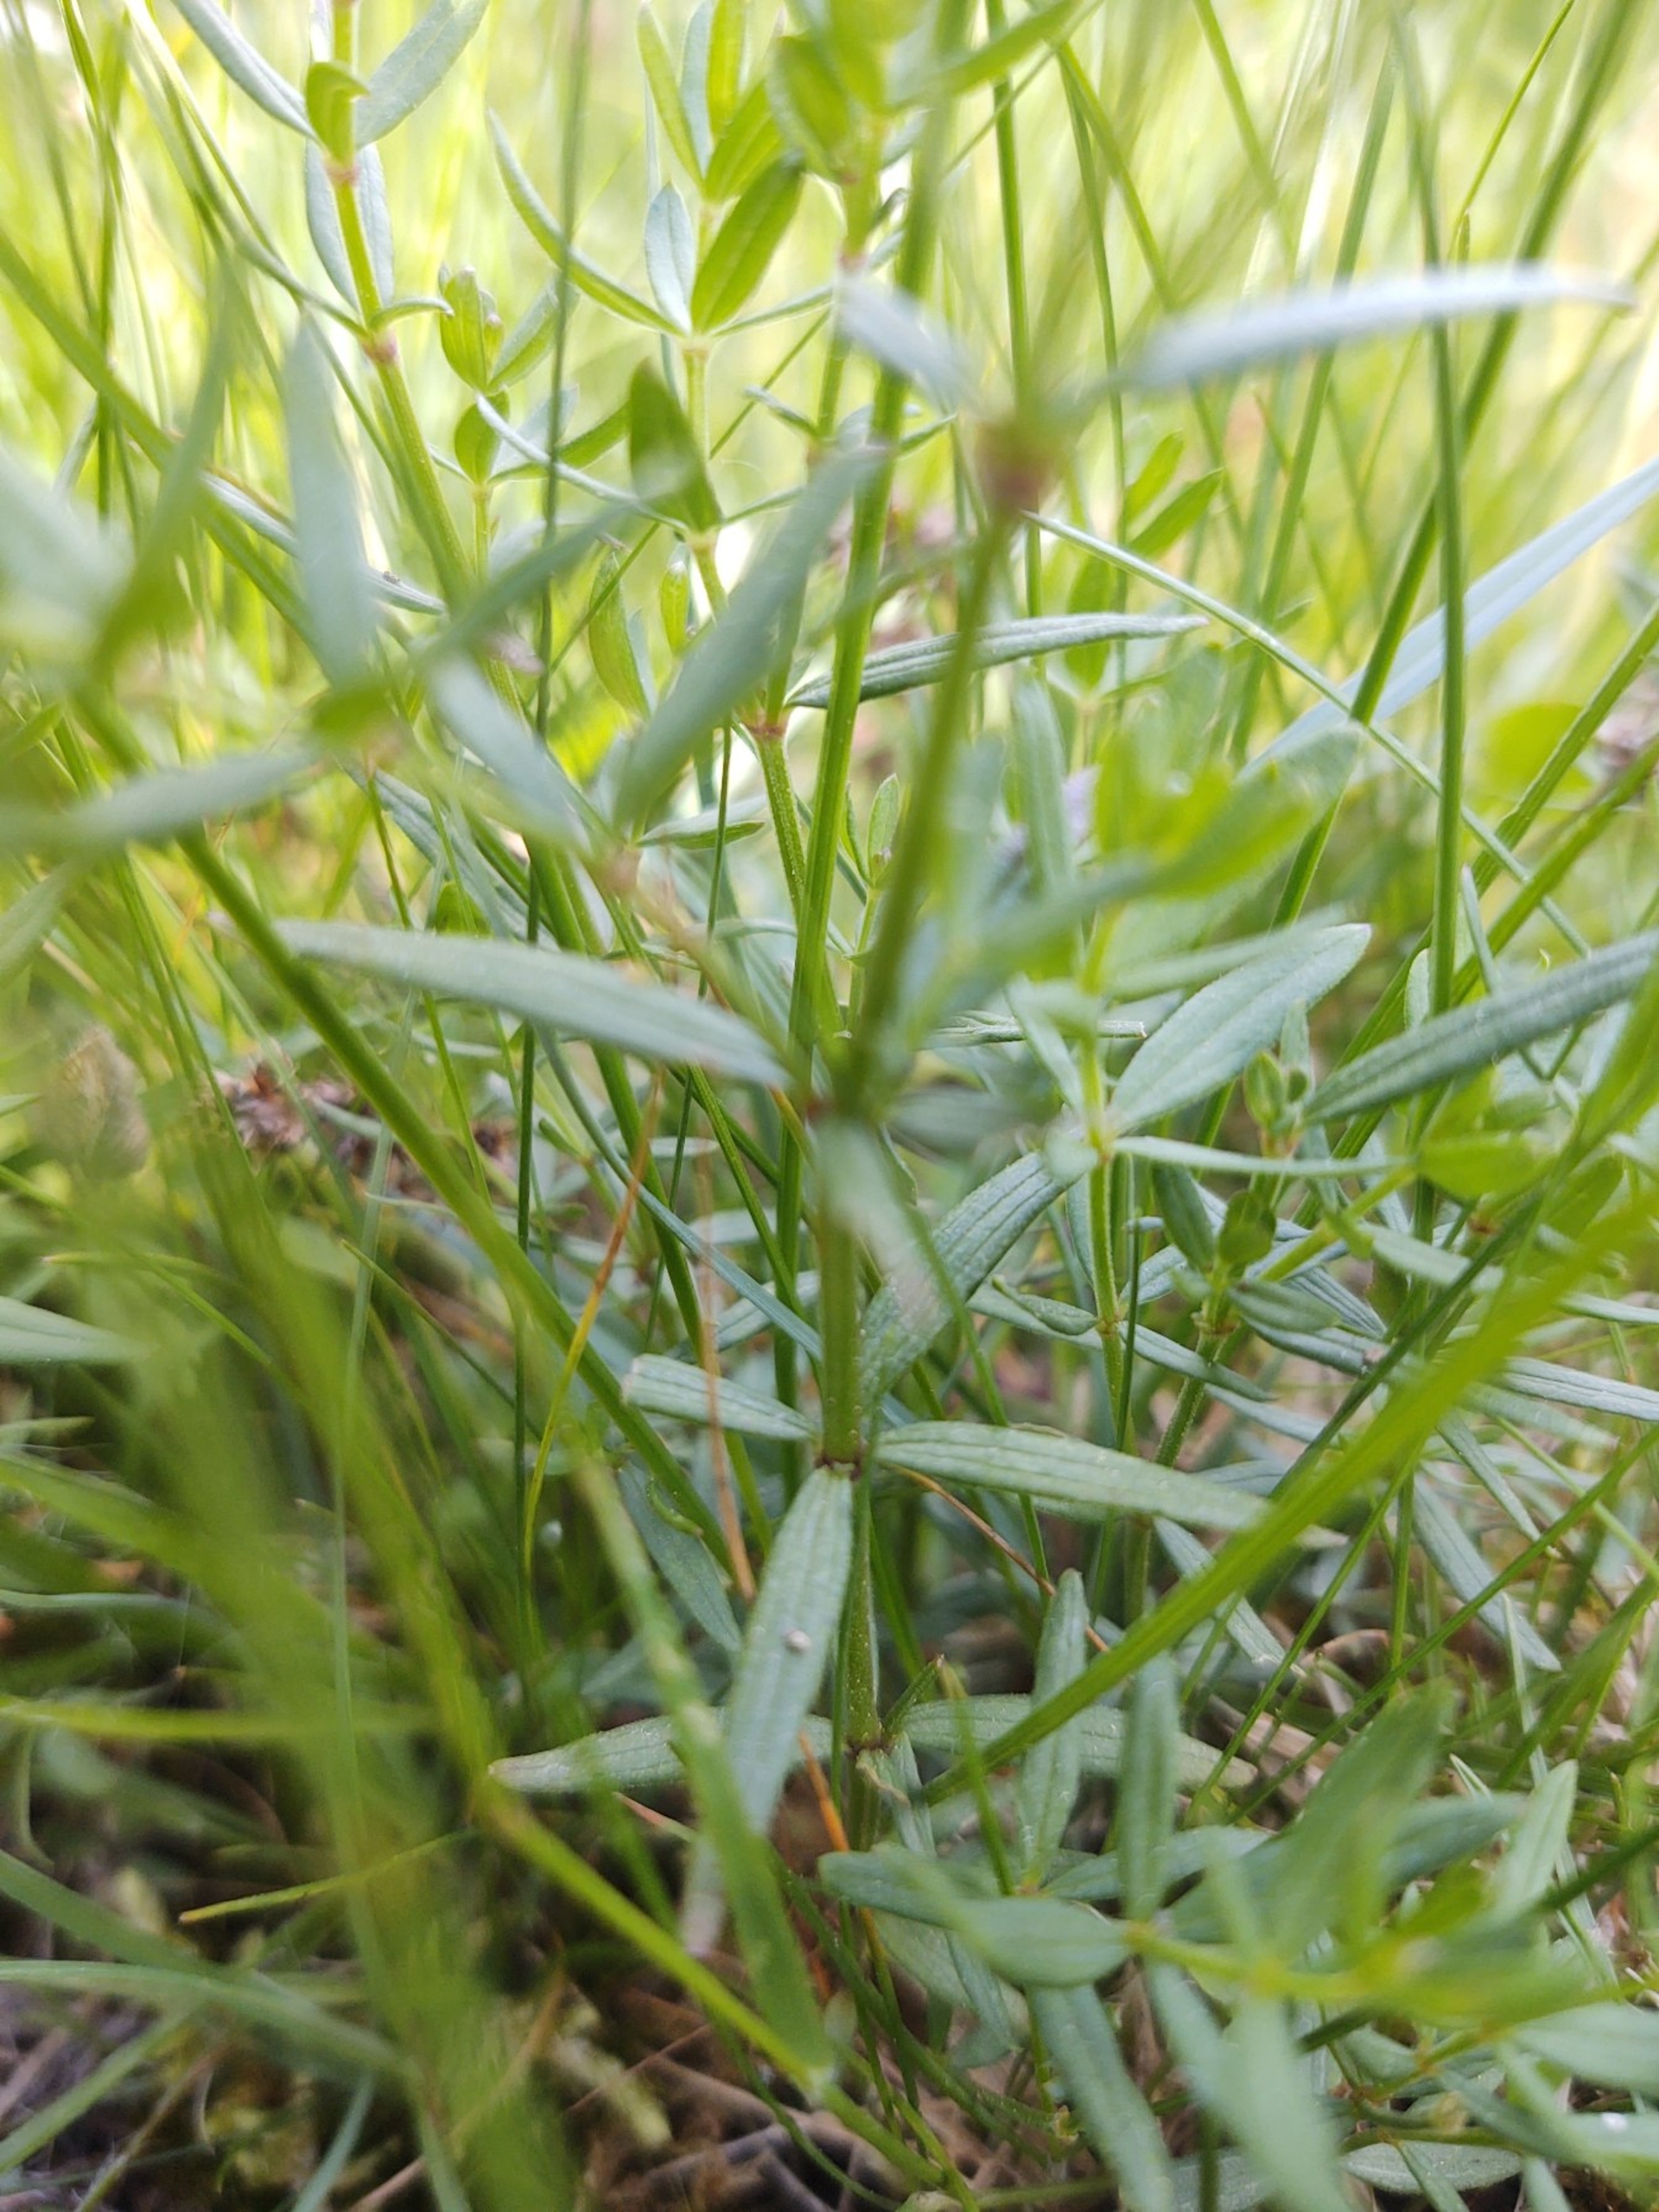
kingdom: Plantae
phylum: Tracheophyta
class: Magnoliopsida
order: Gentianales
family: Rubiaceae
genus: Galium
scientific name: Galium boreale
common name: Trenervet snerre
